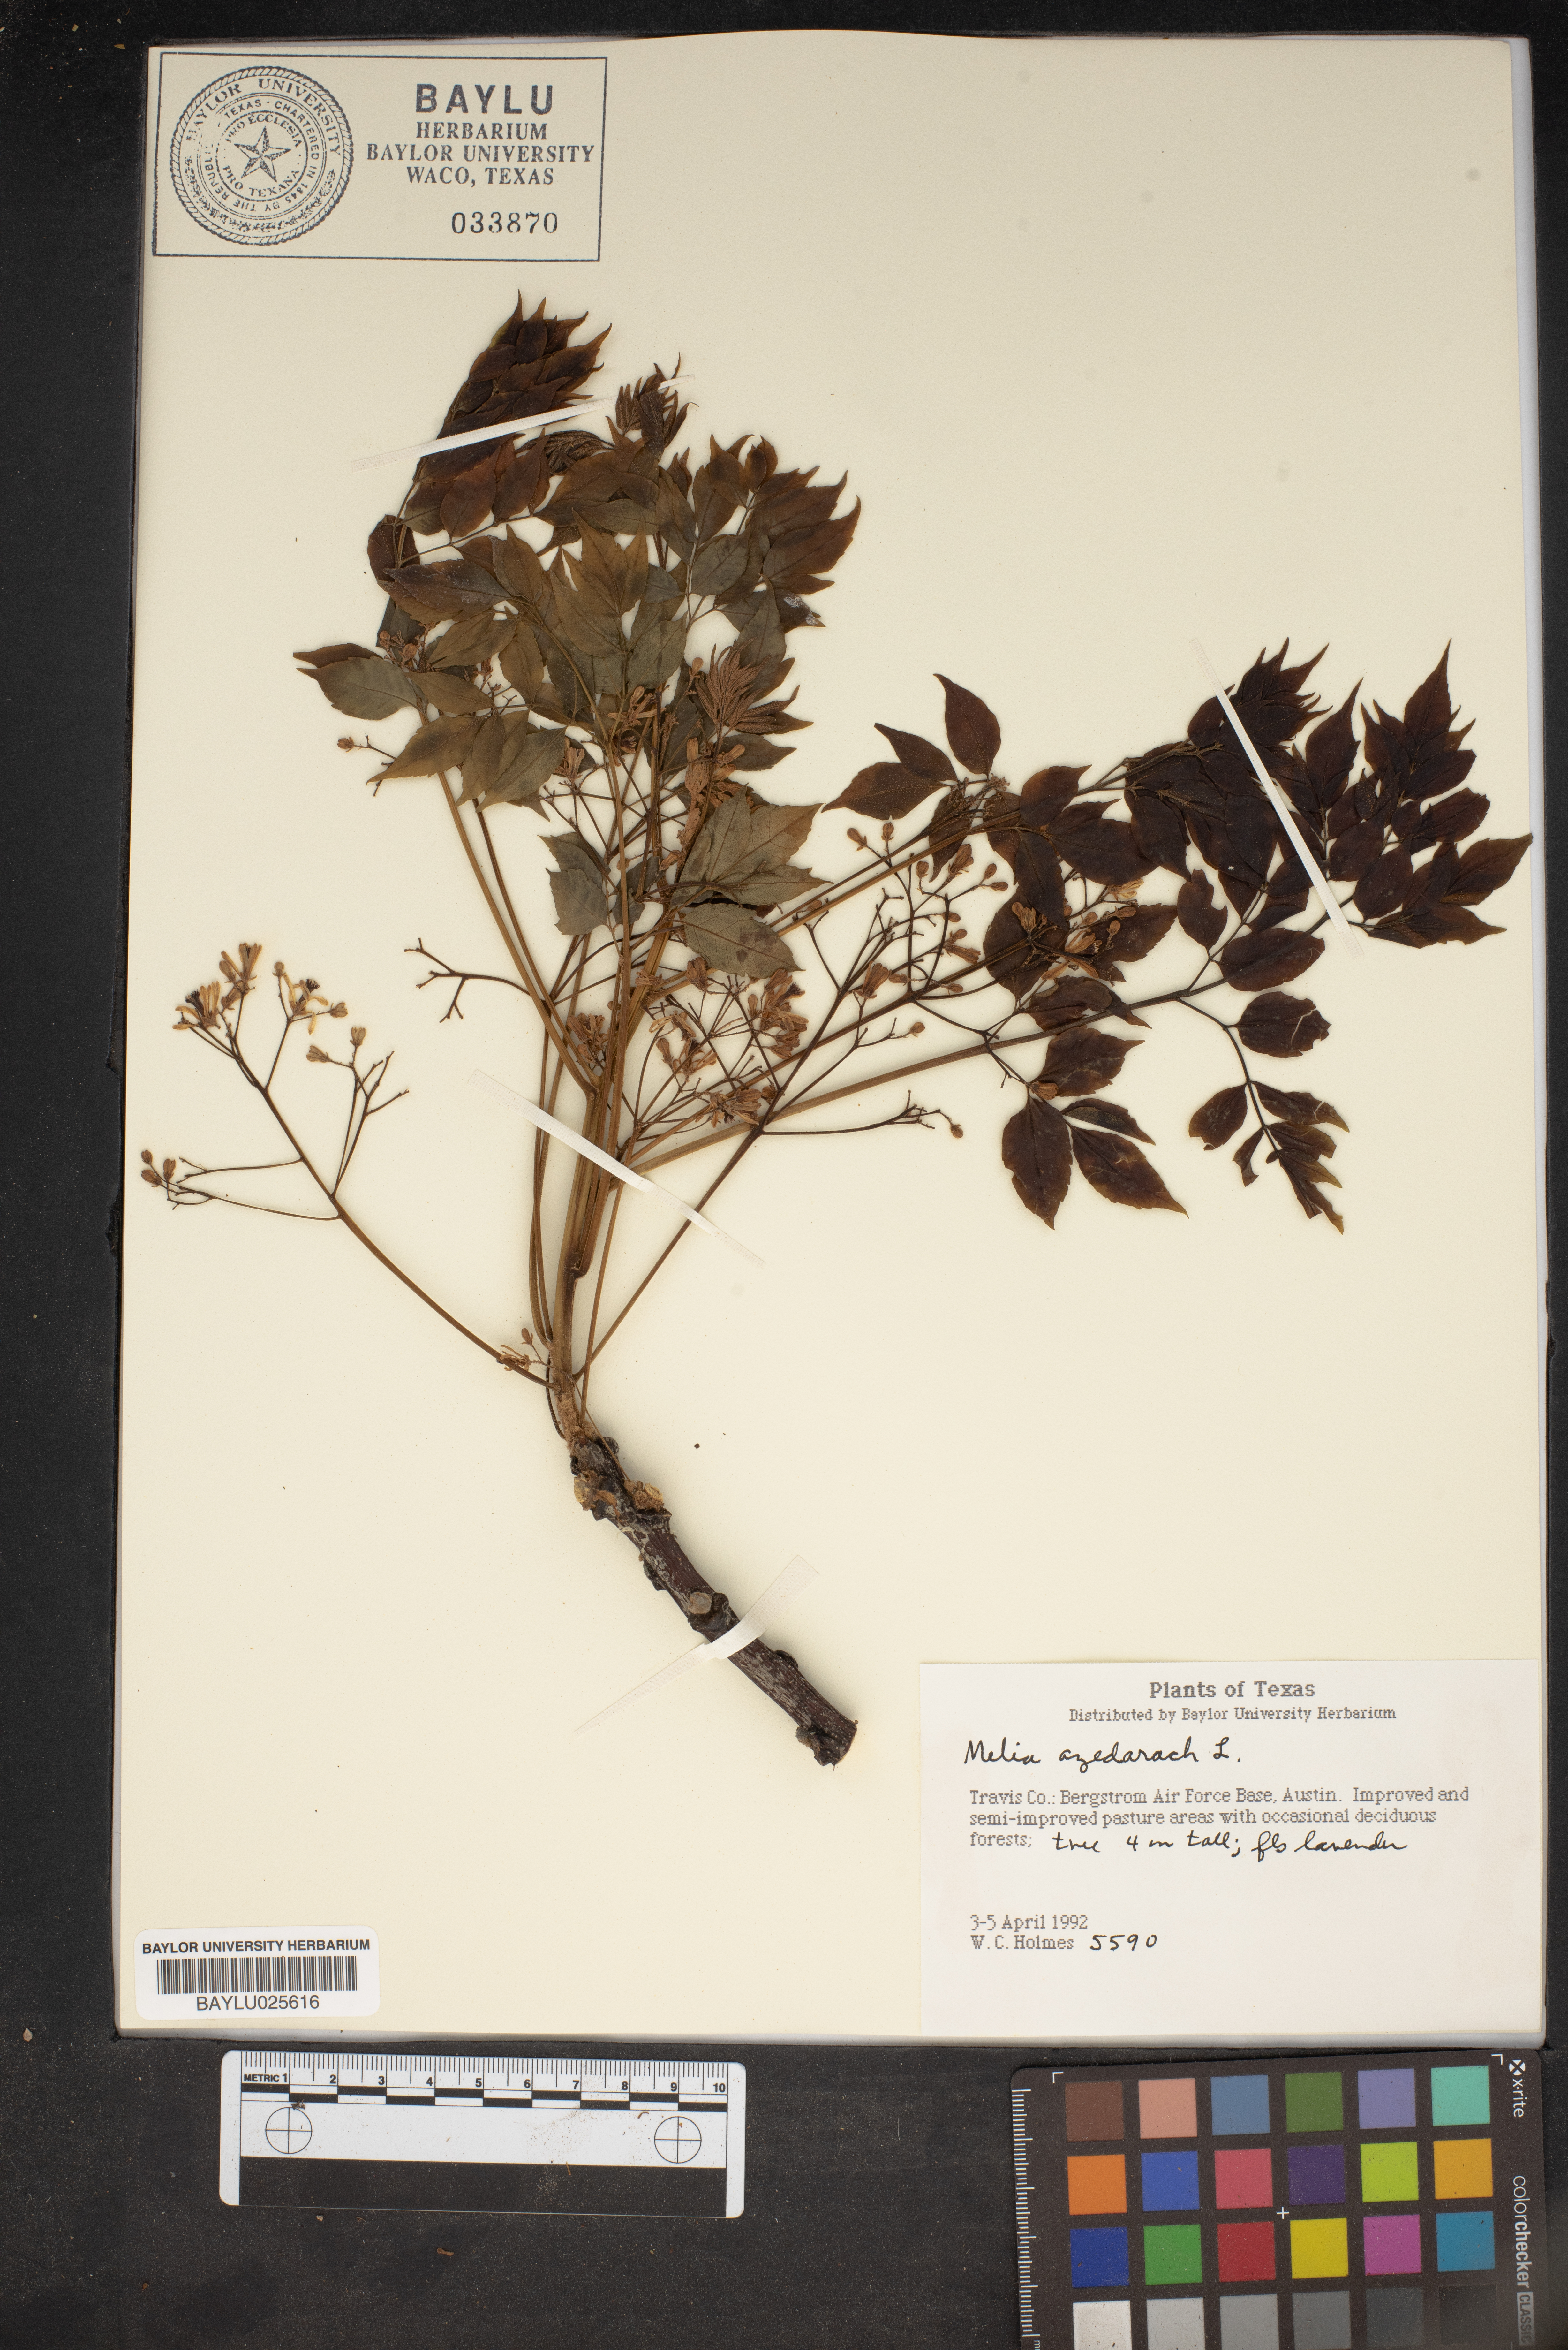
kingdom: Plantae
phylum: Tracheophyta
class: Magnoliopsida
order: Sapindales
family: Meliaceae
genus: Melia
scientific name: Melia azedarach
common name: Chinaberrytree
